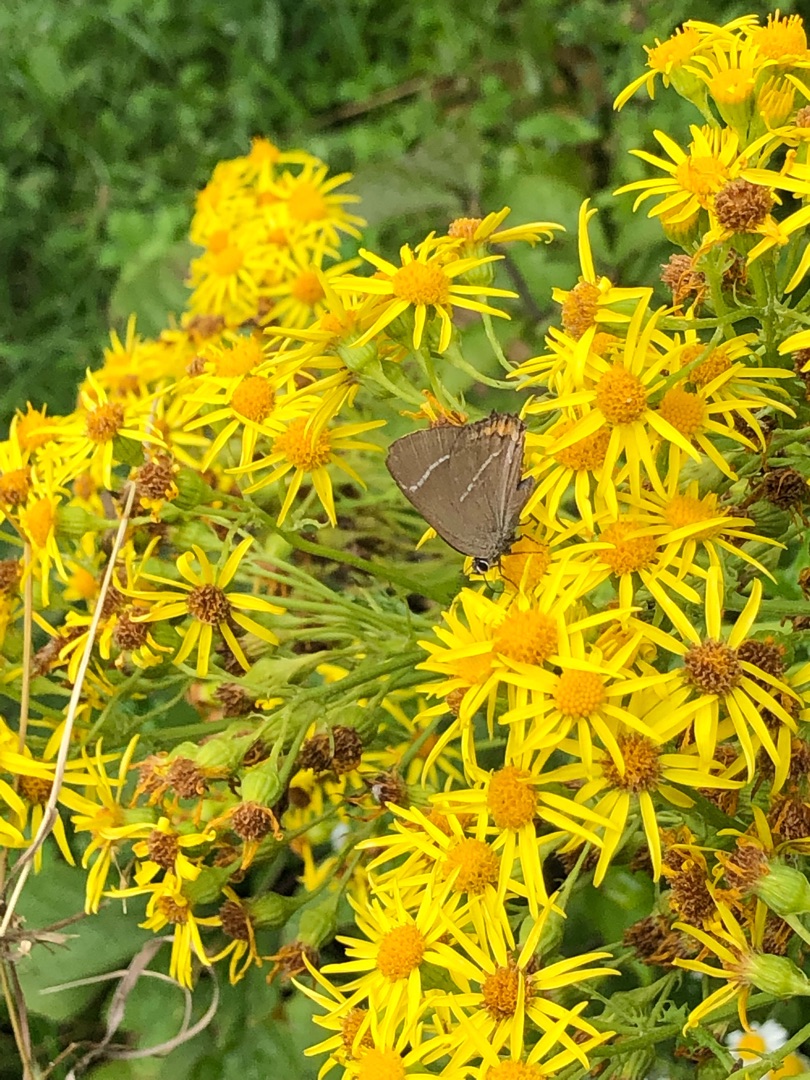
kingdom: Animalia
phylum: Arthropoda
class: Insecta
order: Lepidoptera
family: Lycaenidae
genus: Satyrium
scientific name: Satyrium w-album
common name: Det hvide W
